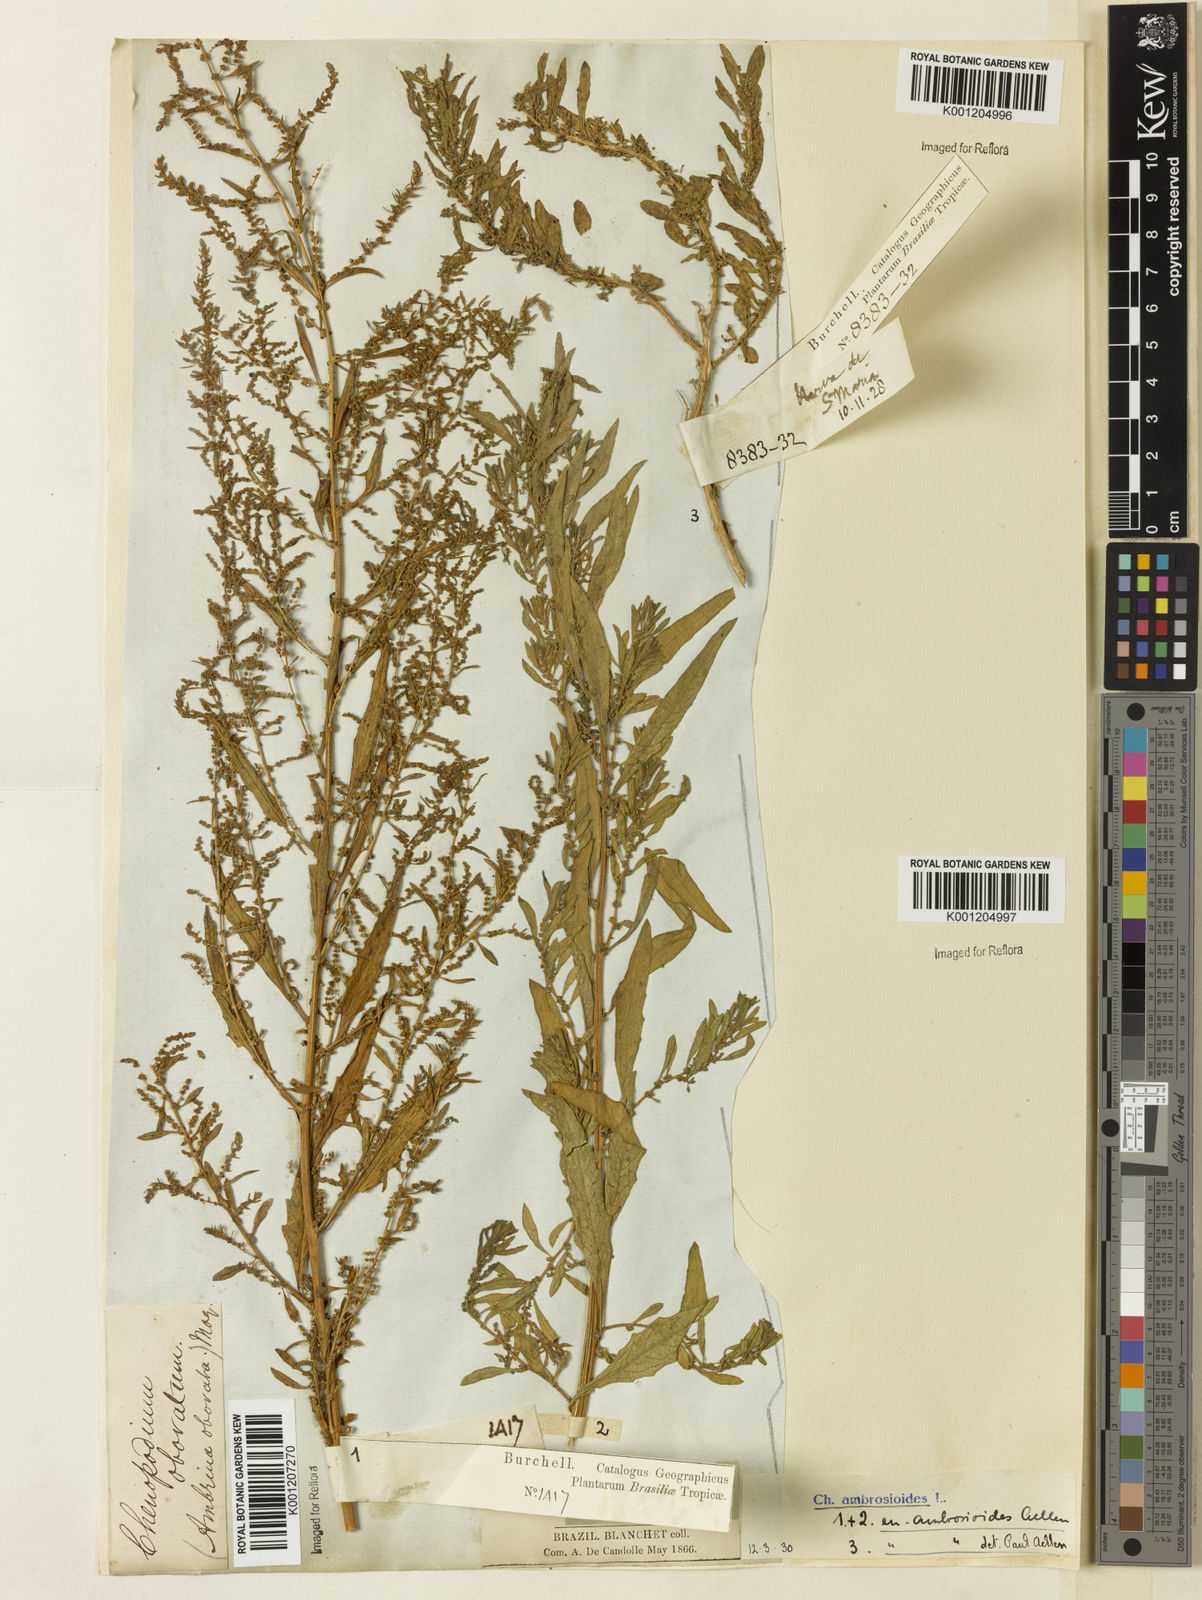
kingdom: Plantae
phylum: Tracheophyta
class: Magnoliopsida
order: Caryophyllales
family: Amaranthaceae
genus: Dysphania
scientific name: Dysphania ambrosioides
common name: Wormseed
